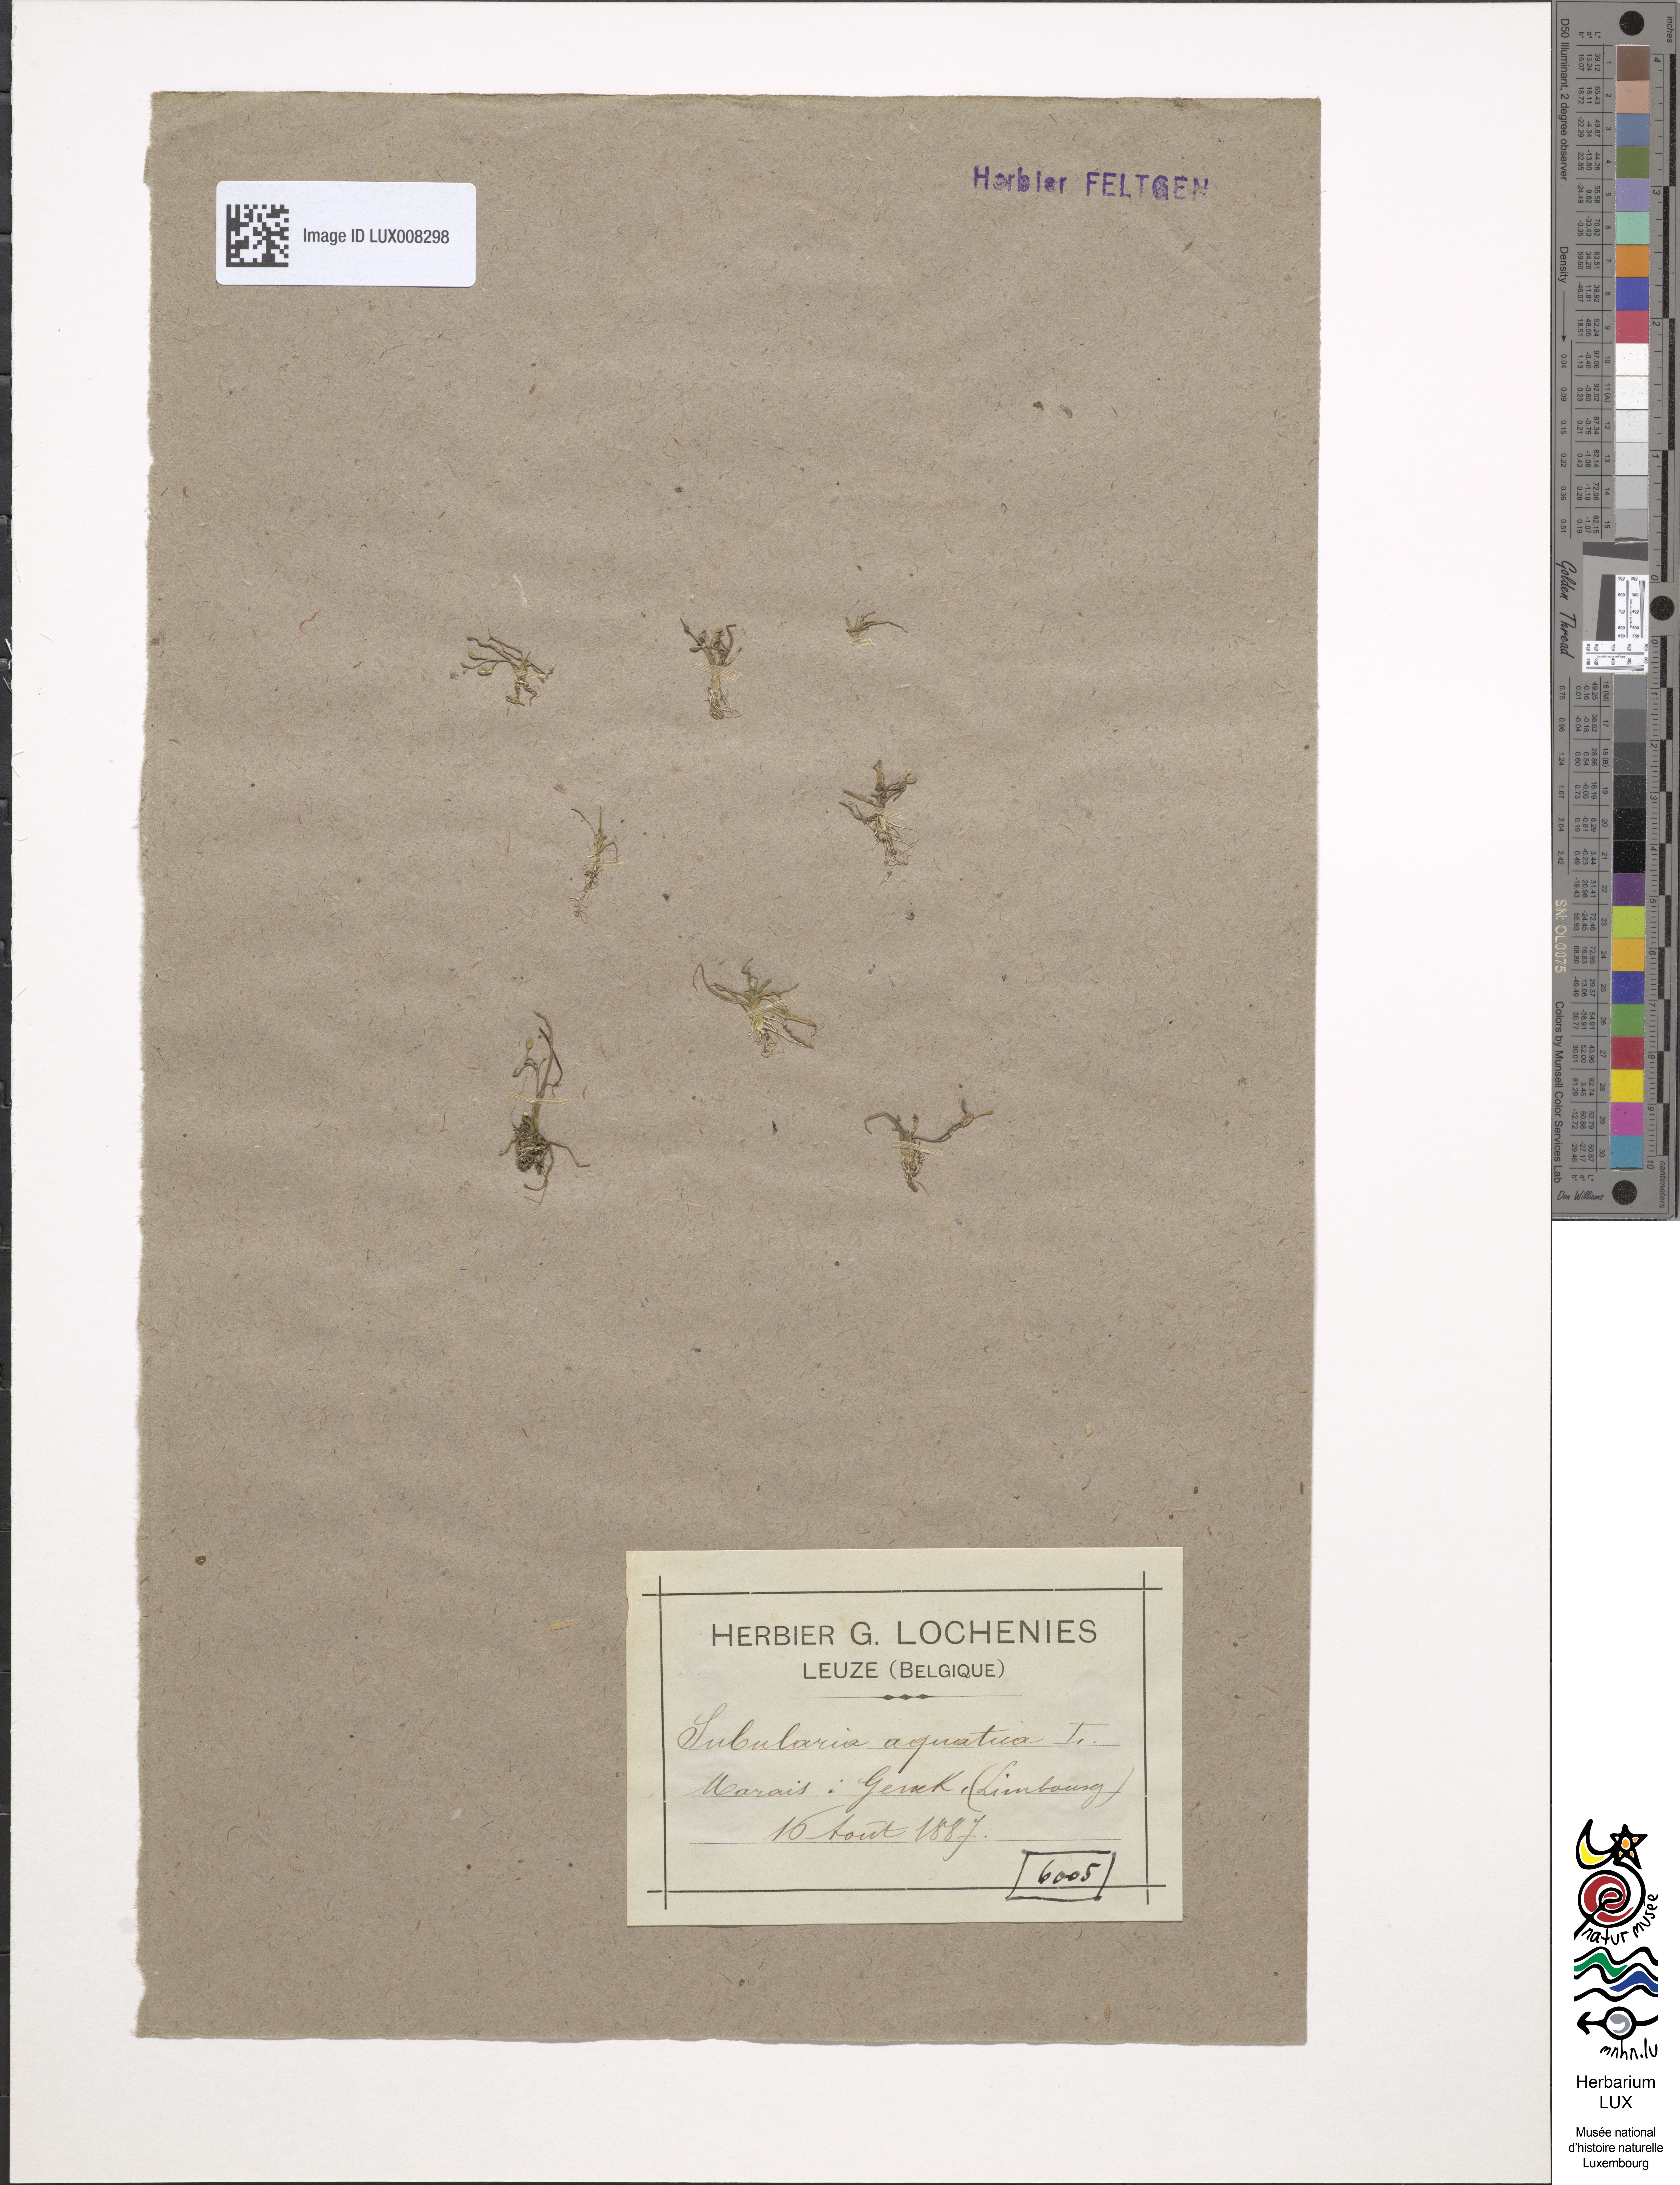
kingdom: Plantae
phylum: Tracheophyta
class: Magnoliopsida
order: Brassicales
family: Brassicaceae
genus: Subularia
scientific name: Subularia aquatica
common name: Awlwort
